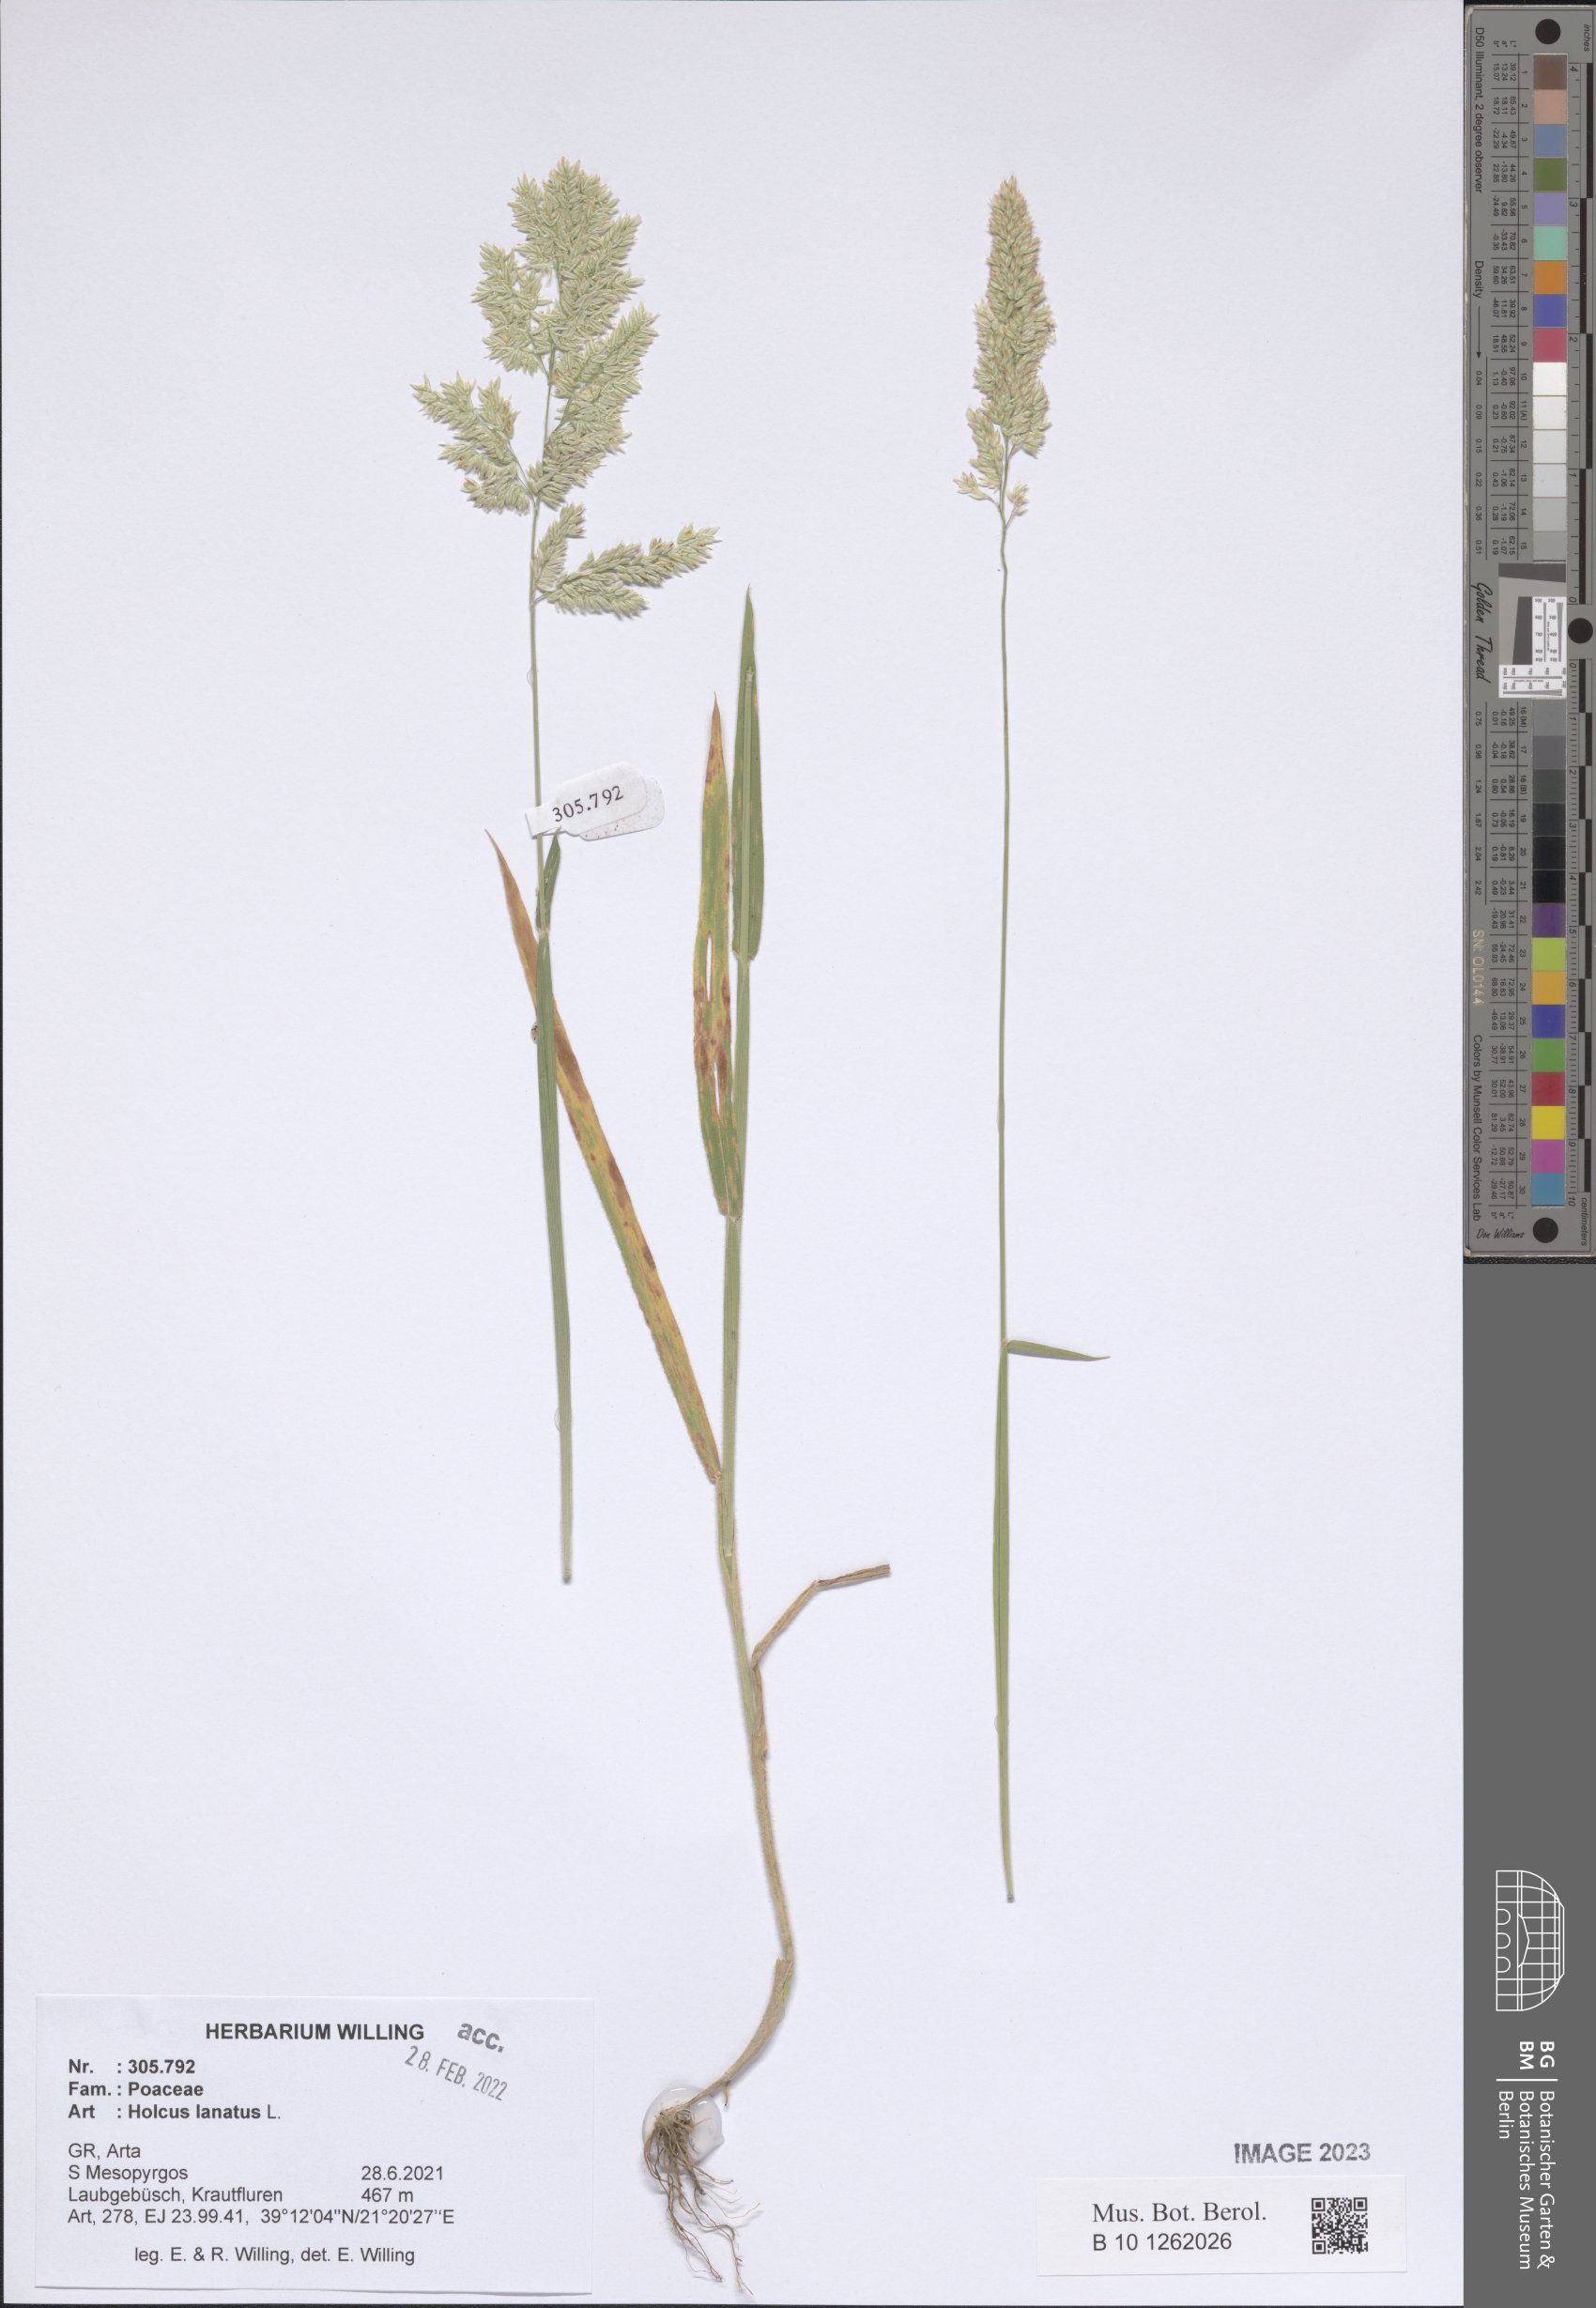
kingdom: Plantae
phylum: Tracheophyta
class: Liliopsida
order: Poales
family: Poaceae
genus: Holcus
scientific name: Holcus lanatus
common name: Yorkshire-fog
